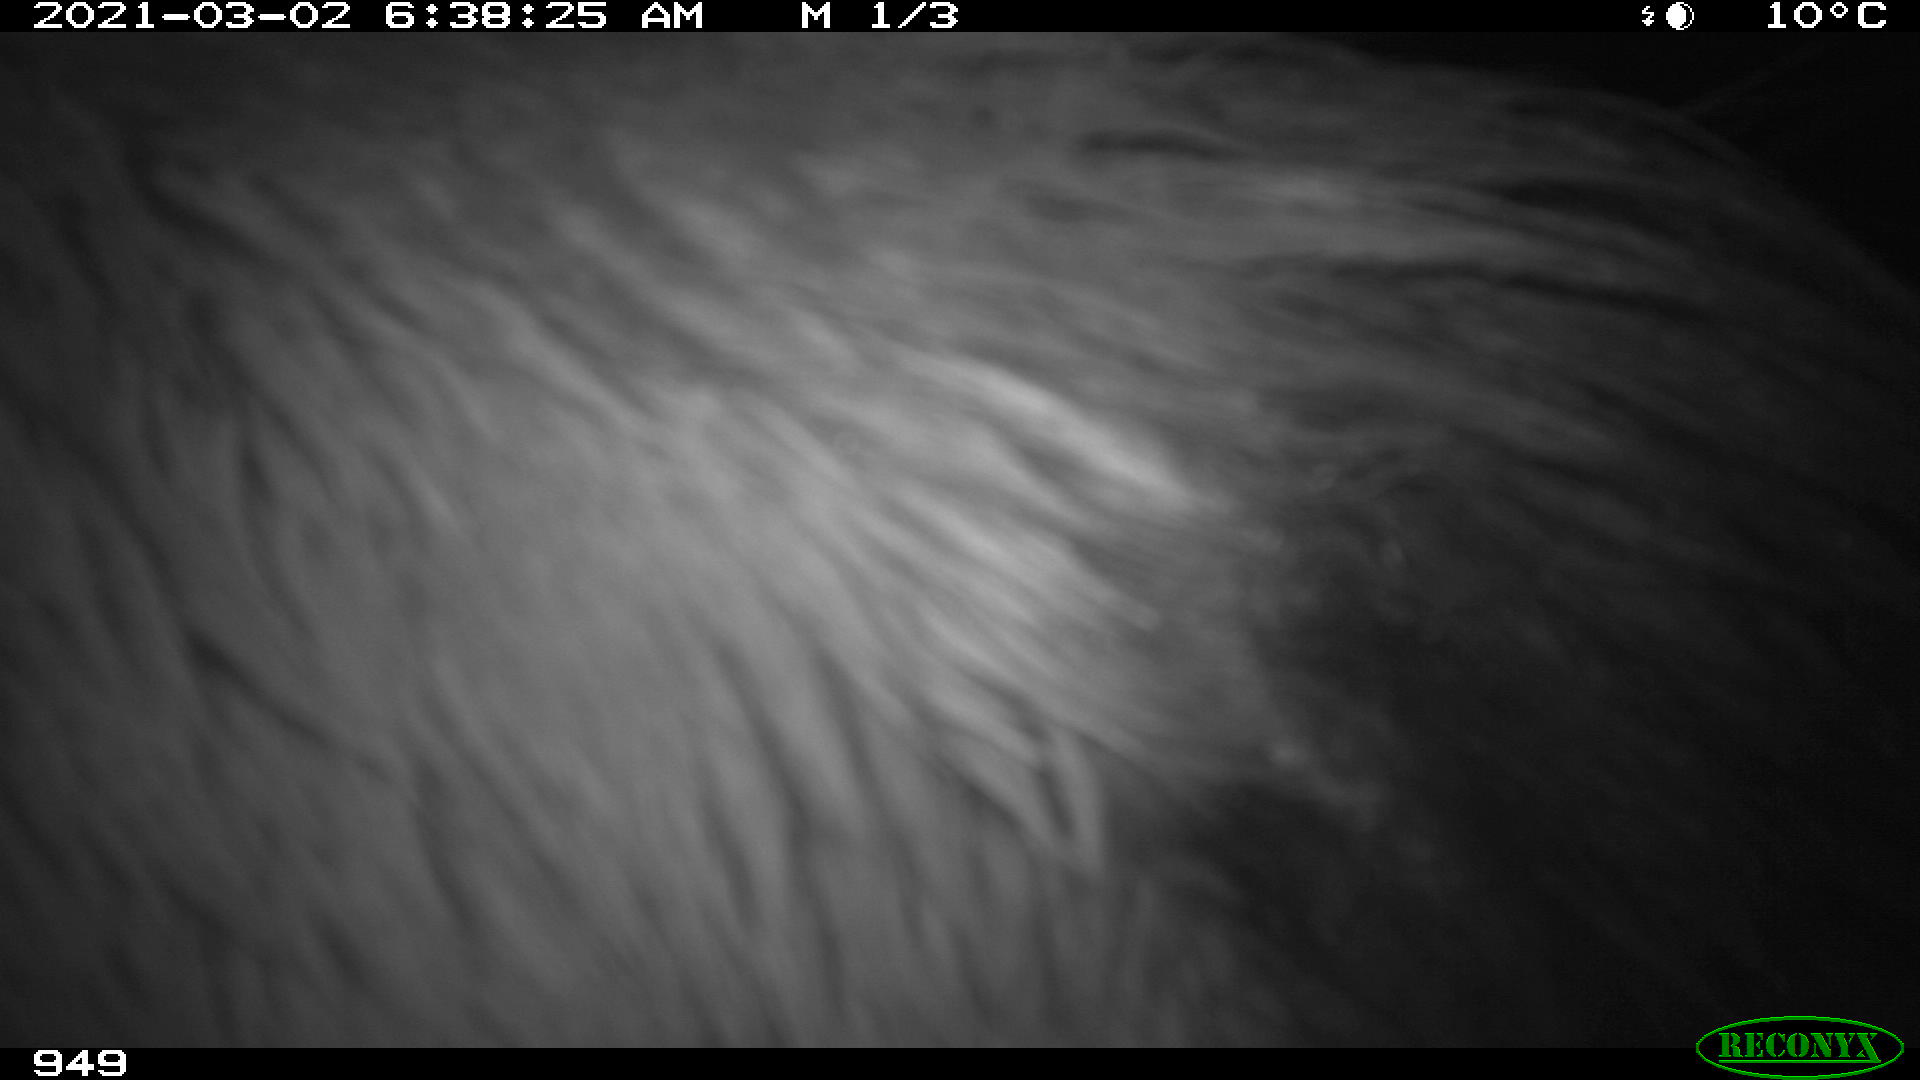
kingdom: Animalia
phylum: Chordata
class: Mammalia
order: Perissodactyla
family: Equidae
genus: Equus
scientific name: Equus caballus
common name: Horse
